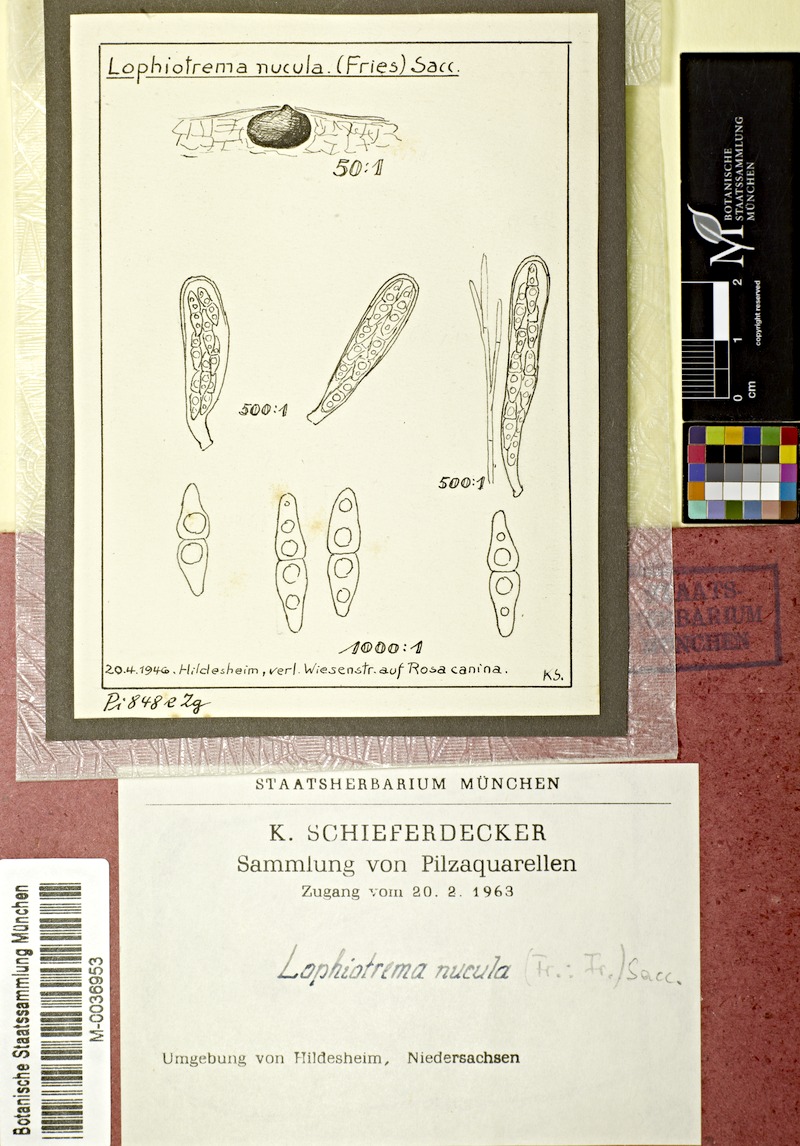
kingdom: Fungi
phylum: Ascomycota
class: Dothideomycetes
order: Pleosporales
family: Lophiostomataceae
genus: Lophiostoma
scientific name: Lophiostoma nucula
